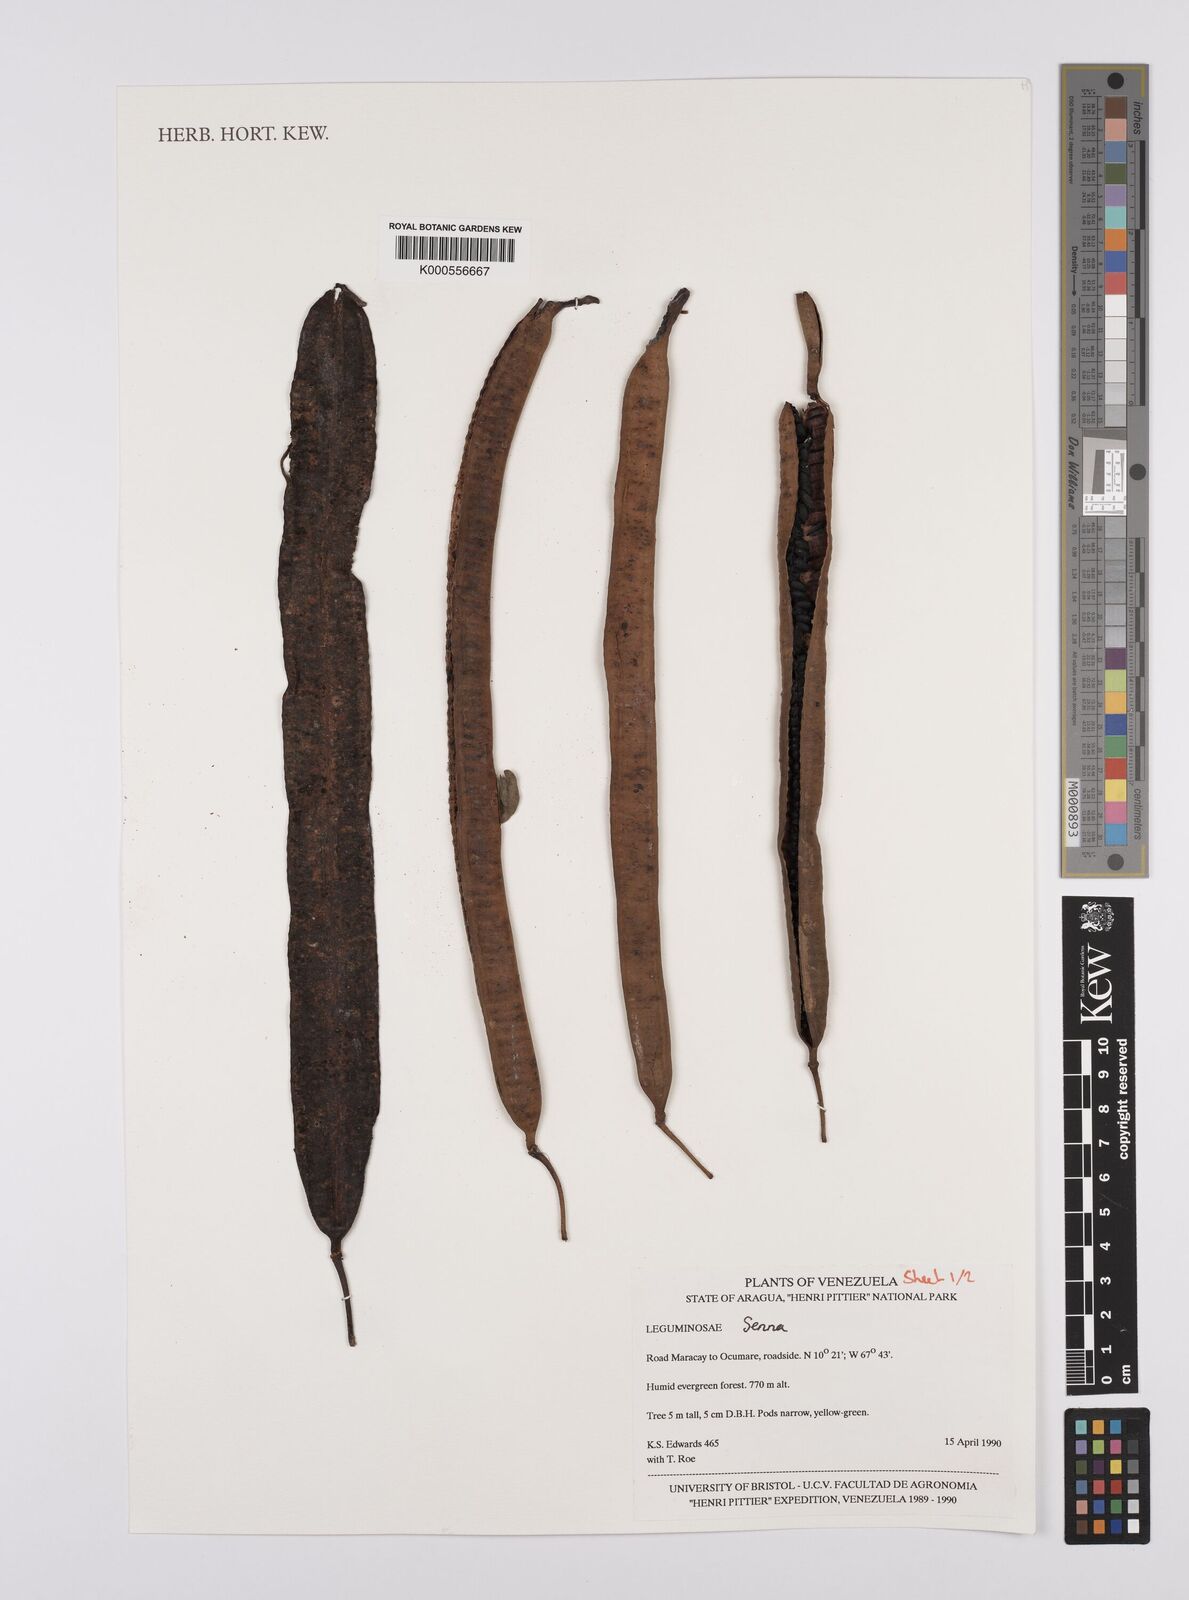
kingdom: Plantae
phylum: Tracheophyta
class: Magnoliopsida
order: Fabales
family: Fabaceae
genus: Senna
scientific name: Senna
